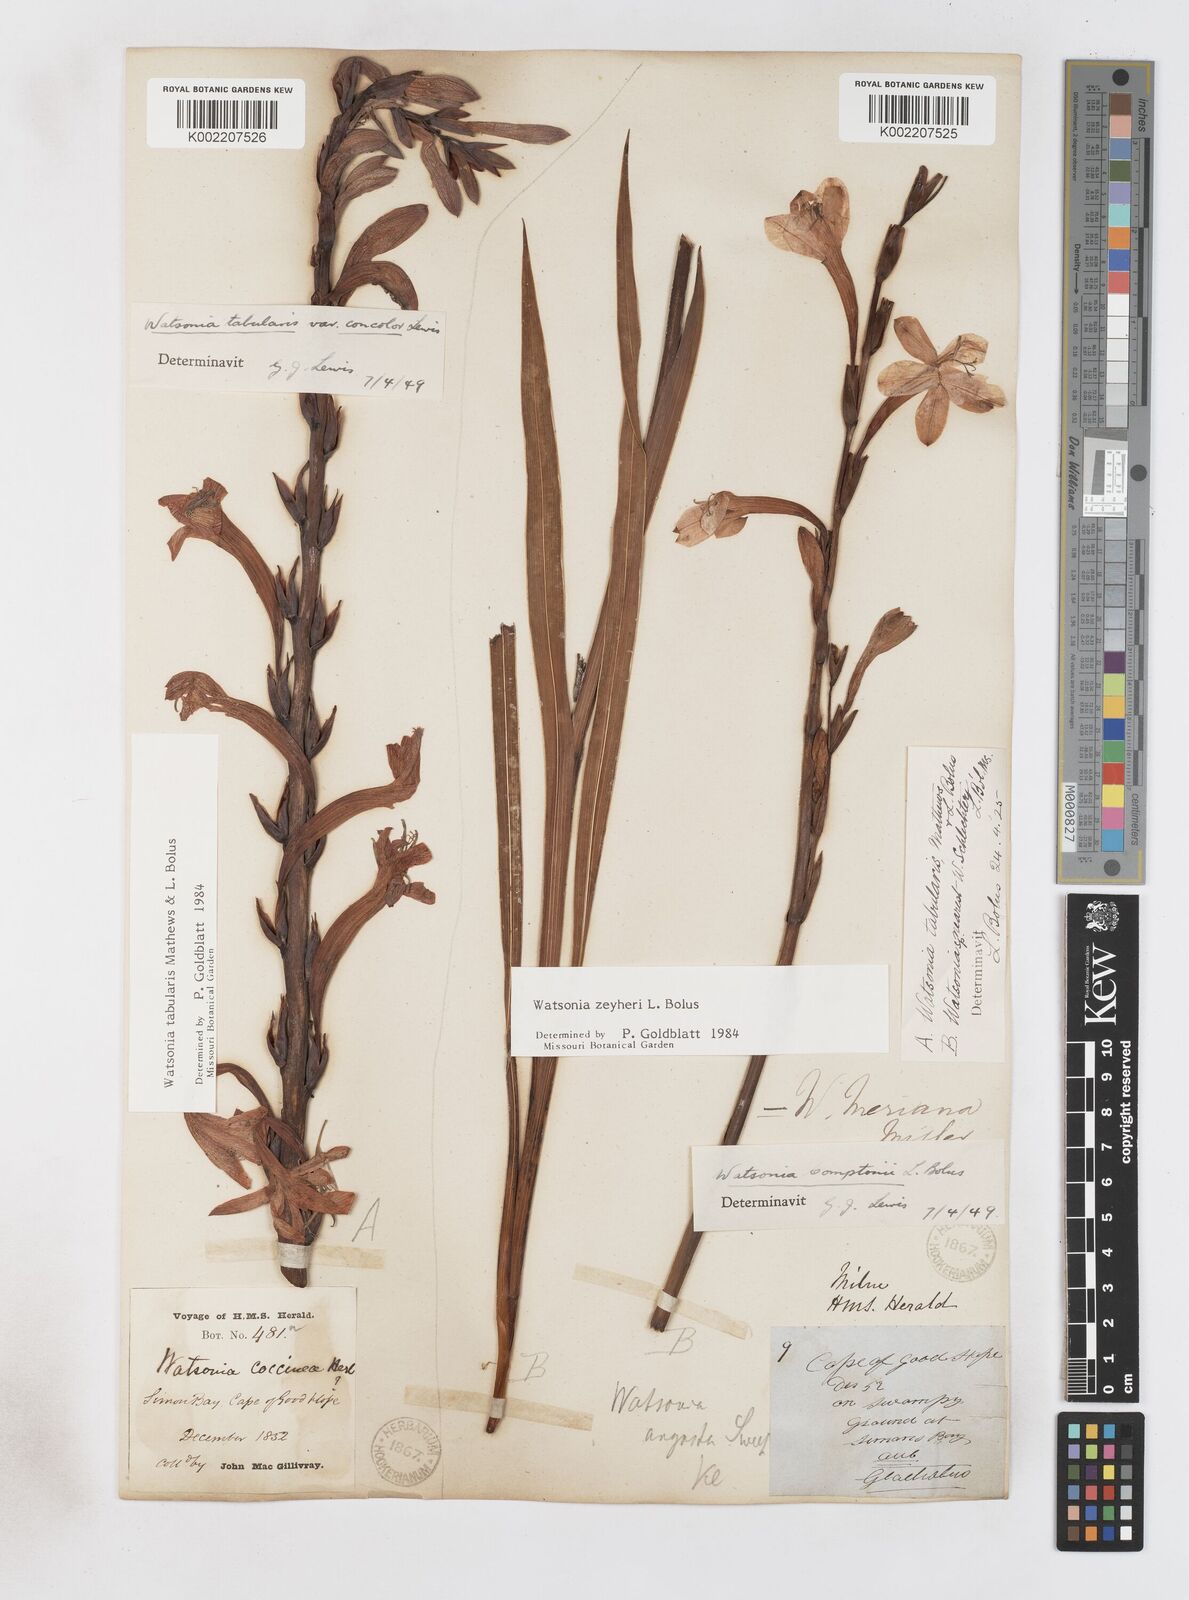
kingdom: Plantae
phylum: Tracheophyta
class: Liliopsida
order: Asparagales
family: Iridaceae
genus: Watsonia
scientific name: Watsonia zeyheri
